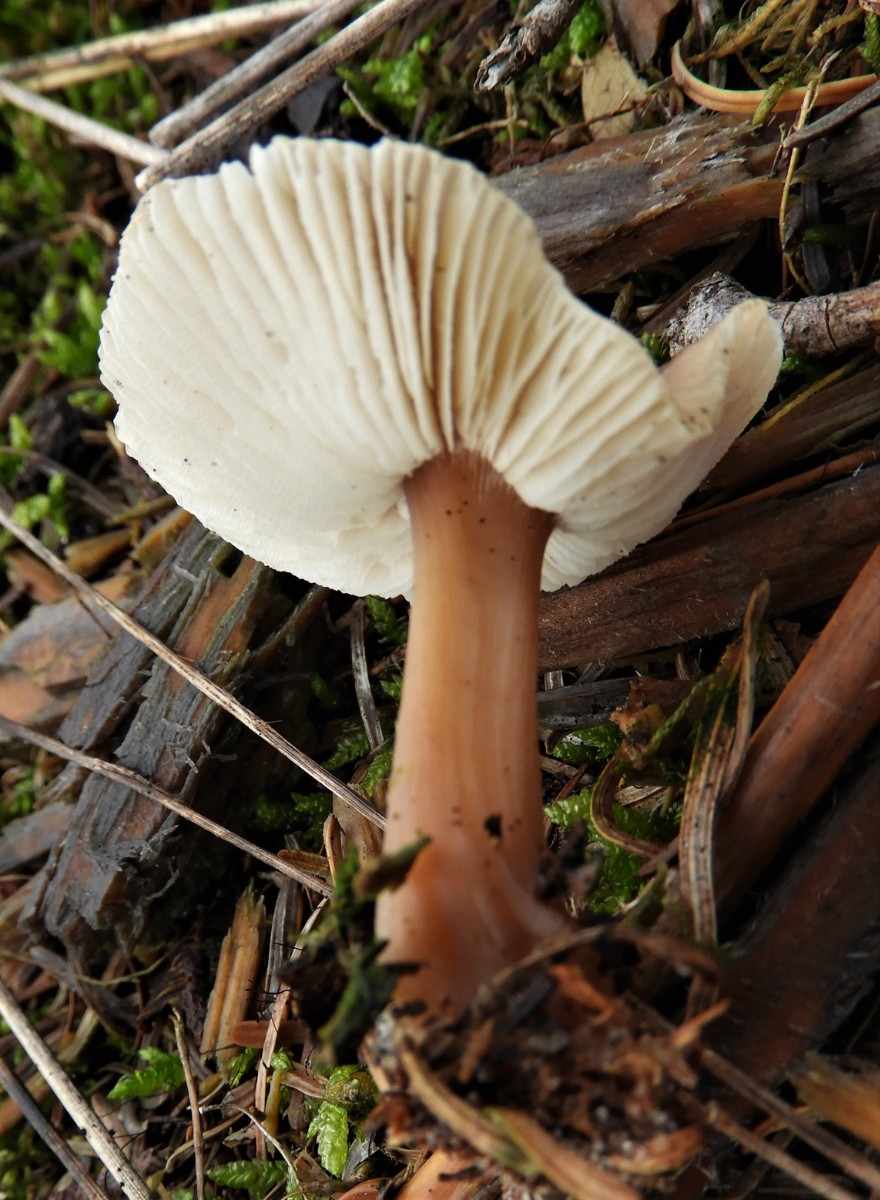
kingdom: Fungi
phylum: Basidiomycota
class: Agaricomycetes
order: Agaricales
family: Omphalotaceae
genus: Rhodocollybia
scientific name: Rhodocollybia asema
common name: horngrå fladhat
